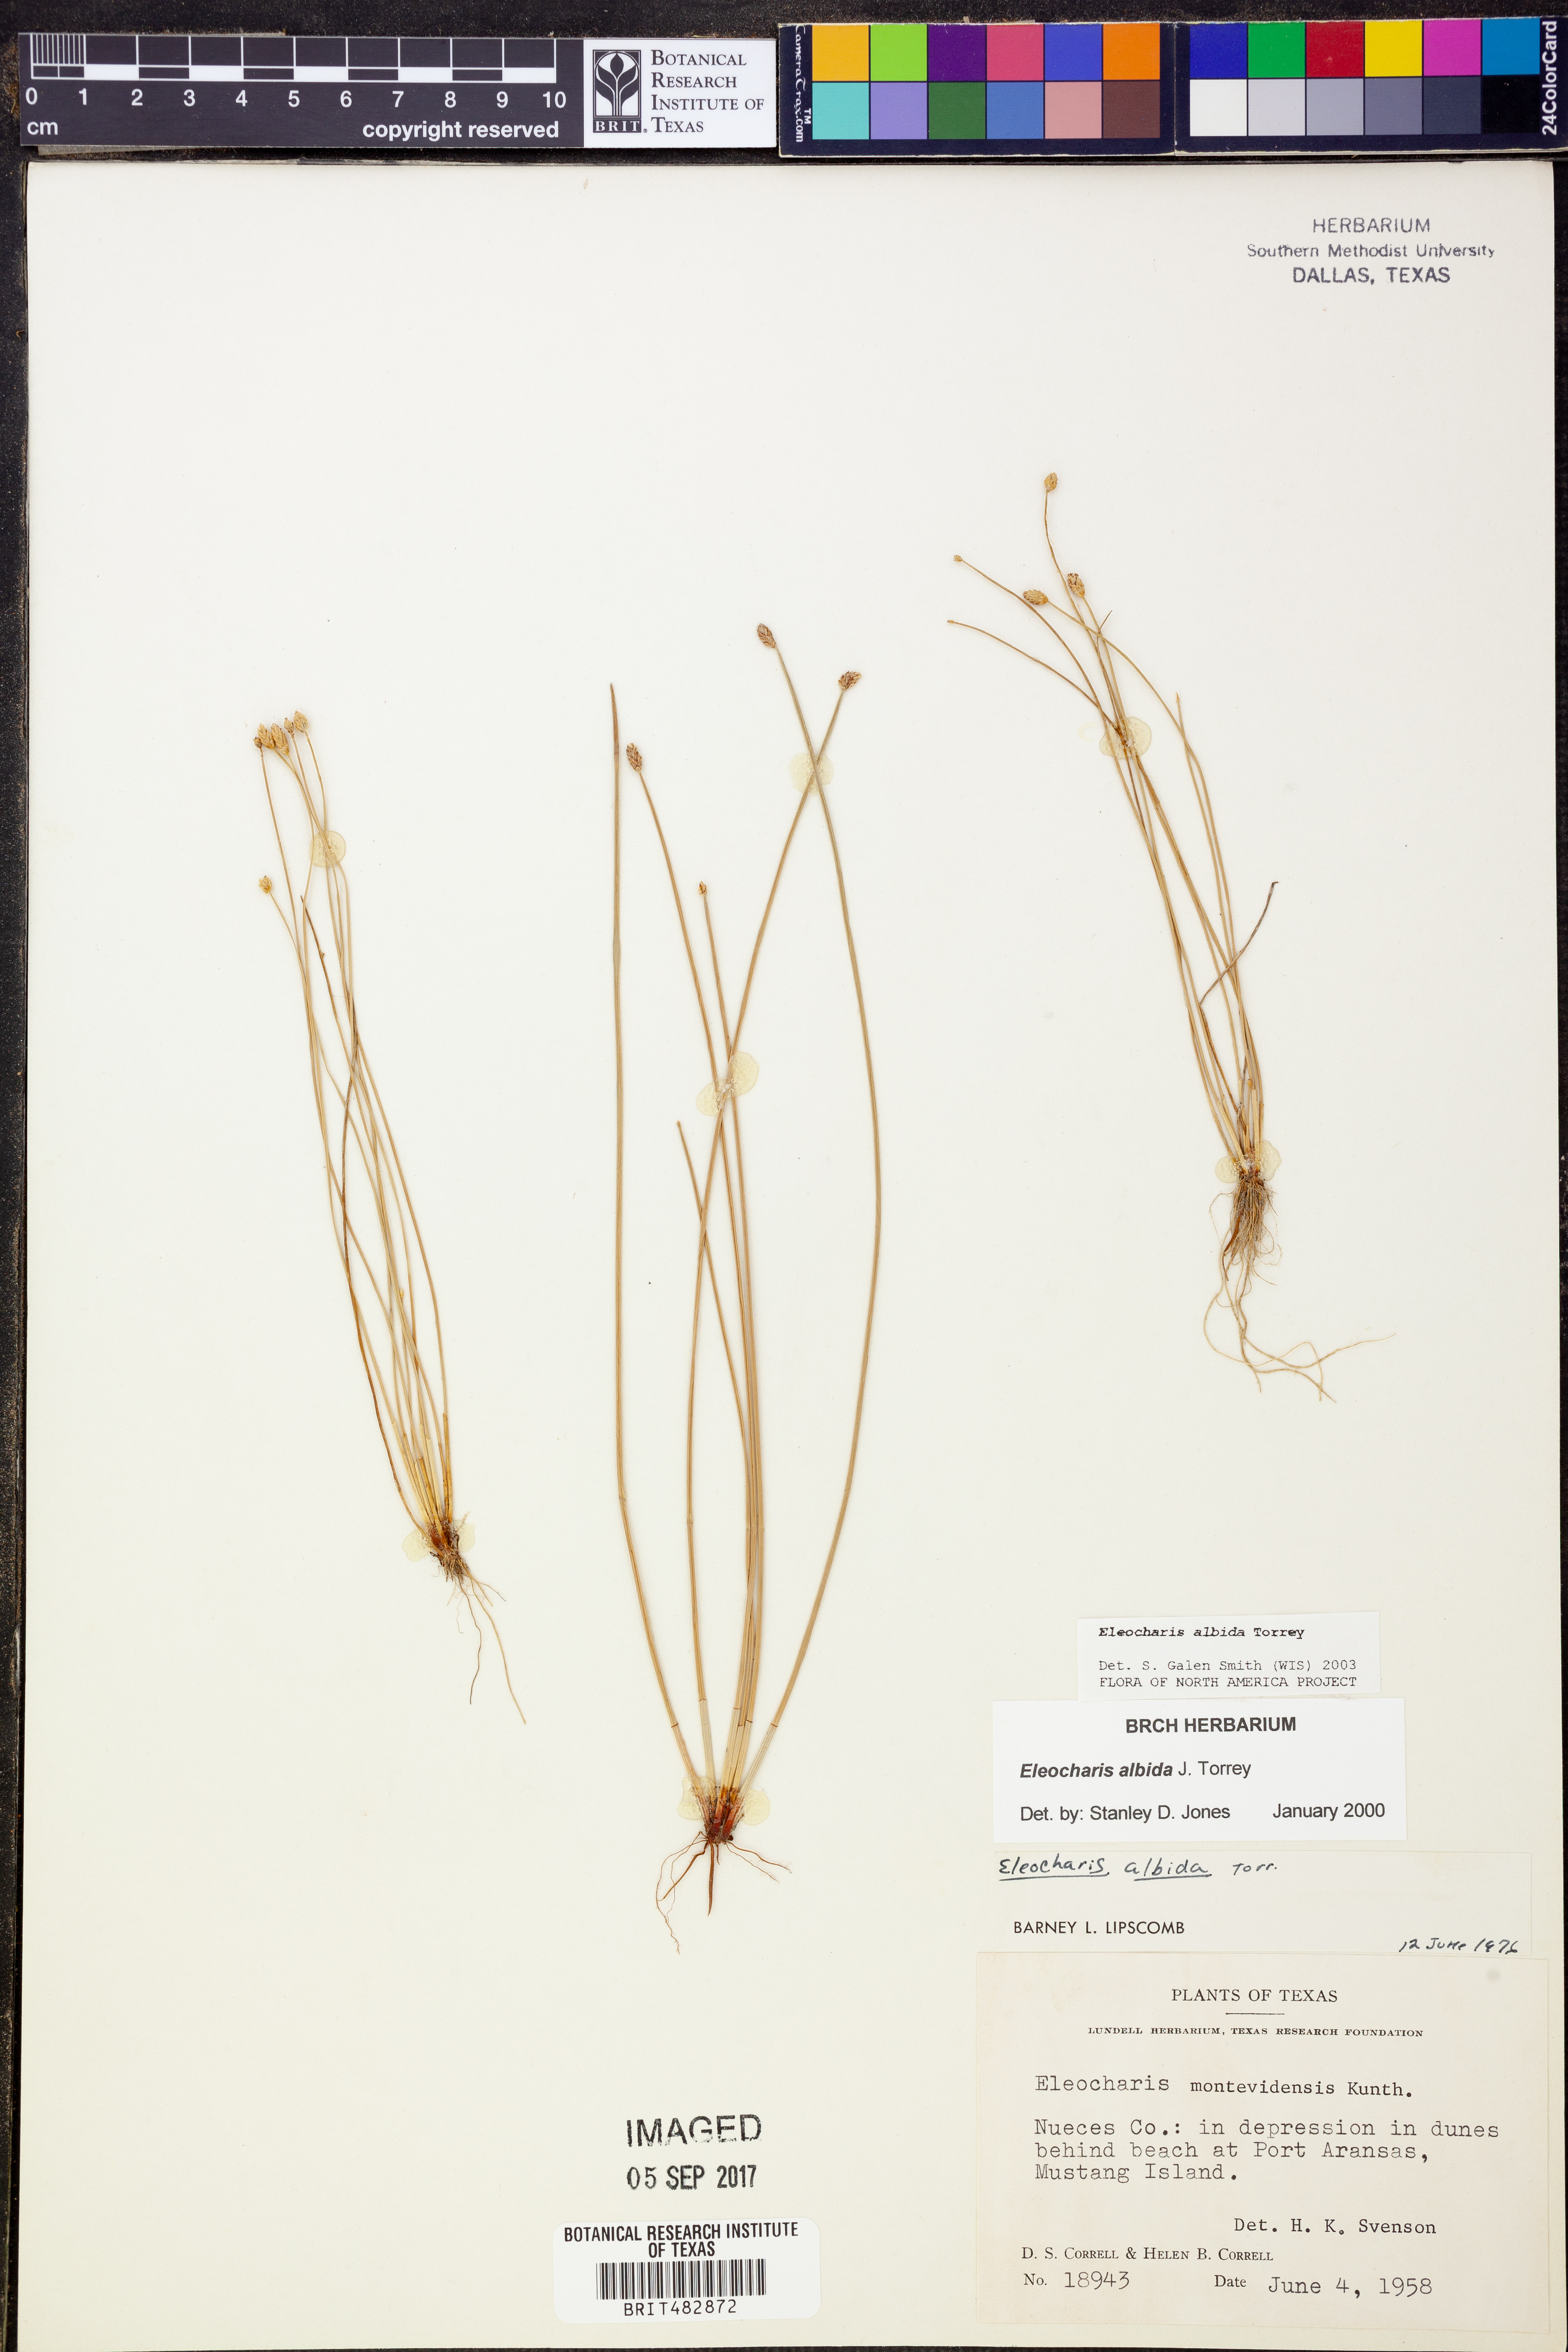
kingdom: Plantae
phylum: Tracheophyta
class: Liliopsida
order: Poales
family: Cyperaceae
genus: Eleocharis
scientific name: Eleocharis albida
